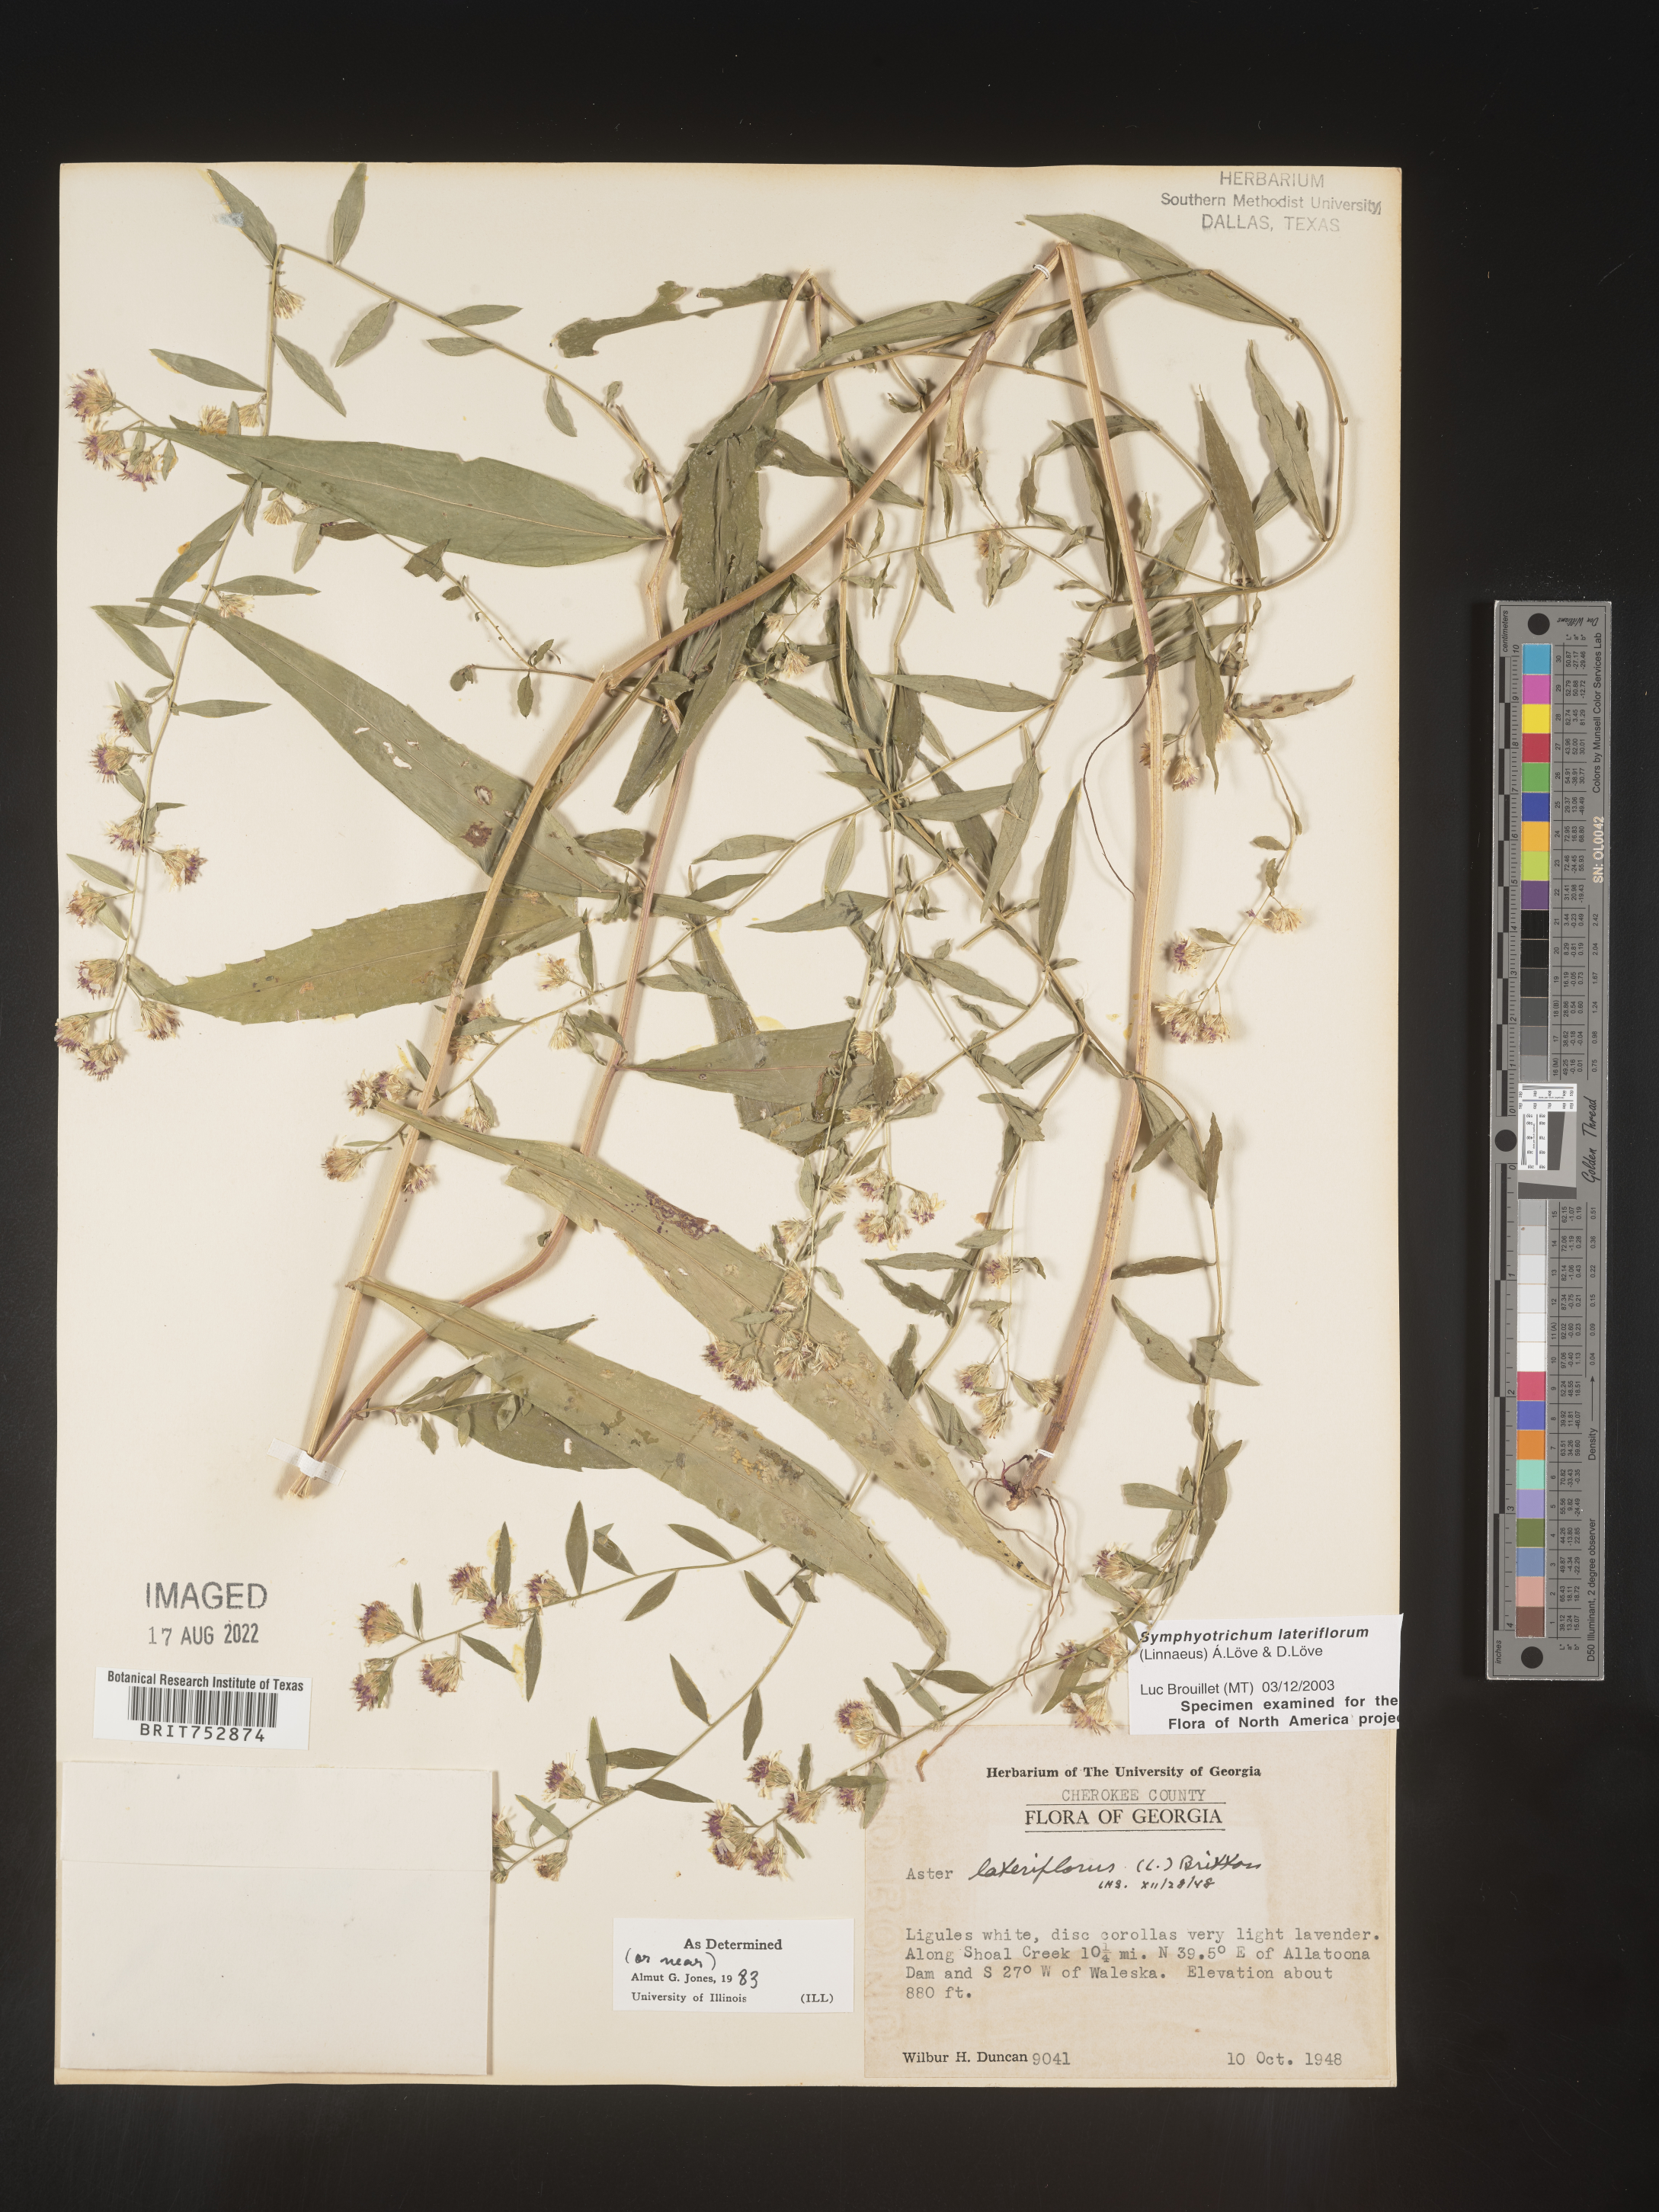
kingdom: Plantae
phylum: Tracheophyta
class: Magnoliopsida
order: Asterales
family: Asteraceae
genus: Symphyotrichum
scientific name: Symphyotrichum lateriflorum
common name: Calico aster
